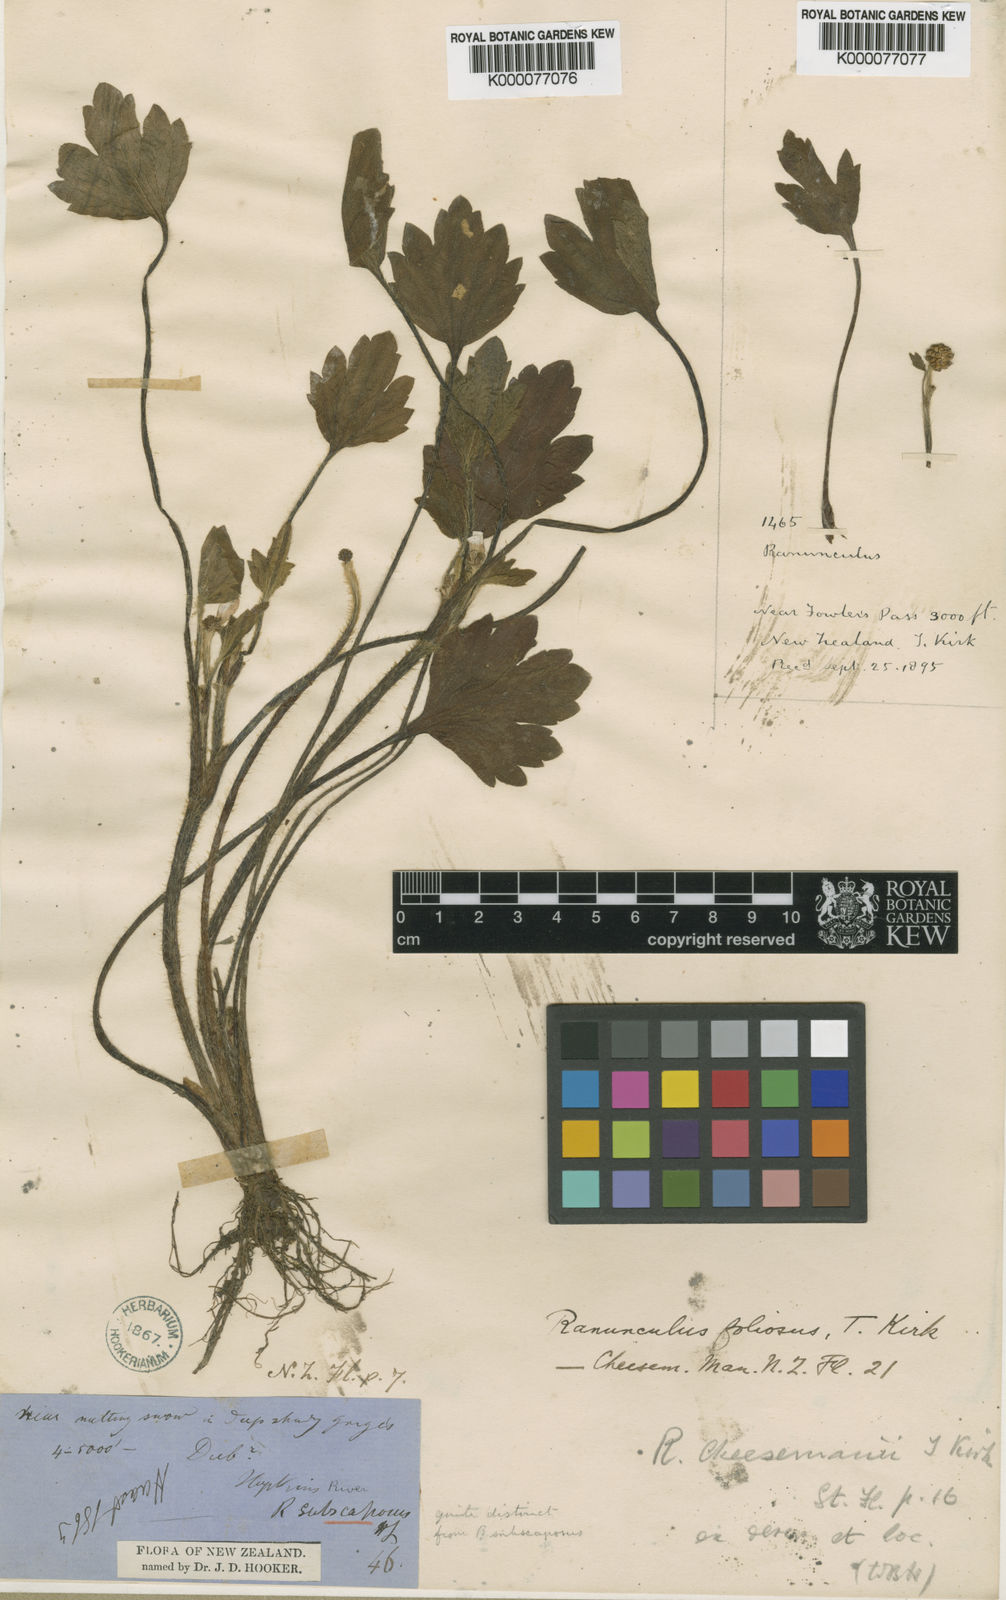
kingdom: Plantae
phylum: Tracheophyta
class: Magnoliopsida
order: Ranunculales
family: Ranunculaceae
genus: Ranunculus
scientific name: Ranunculus foliosus
